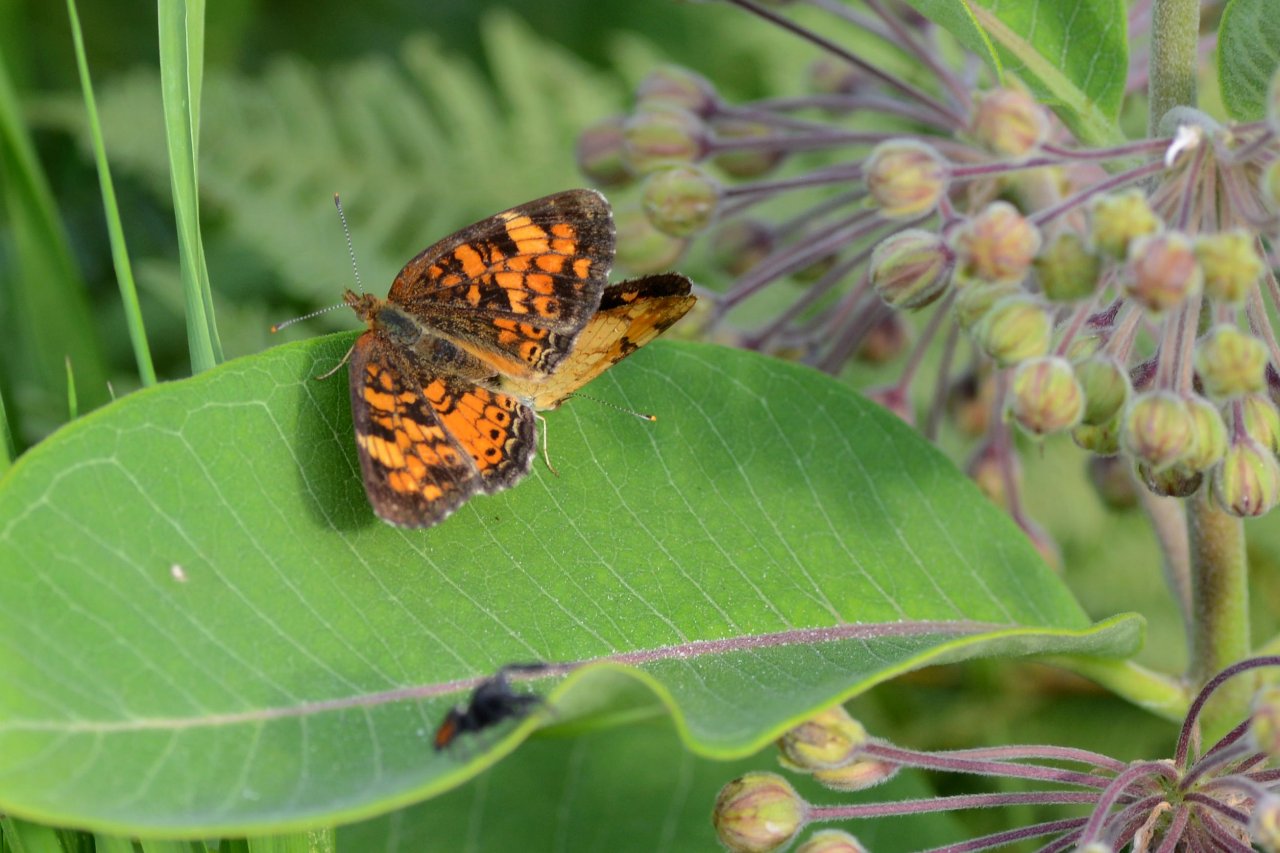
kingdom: Animalia
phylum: Arthropoda
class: Insecta
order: Lepidoptera
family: Nymphalidae
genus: Phyciodes
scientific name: Phyciodes tharos
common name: Northern Crescent
